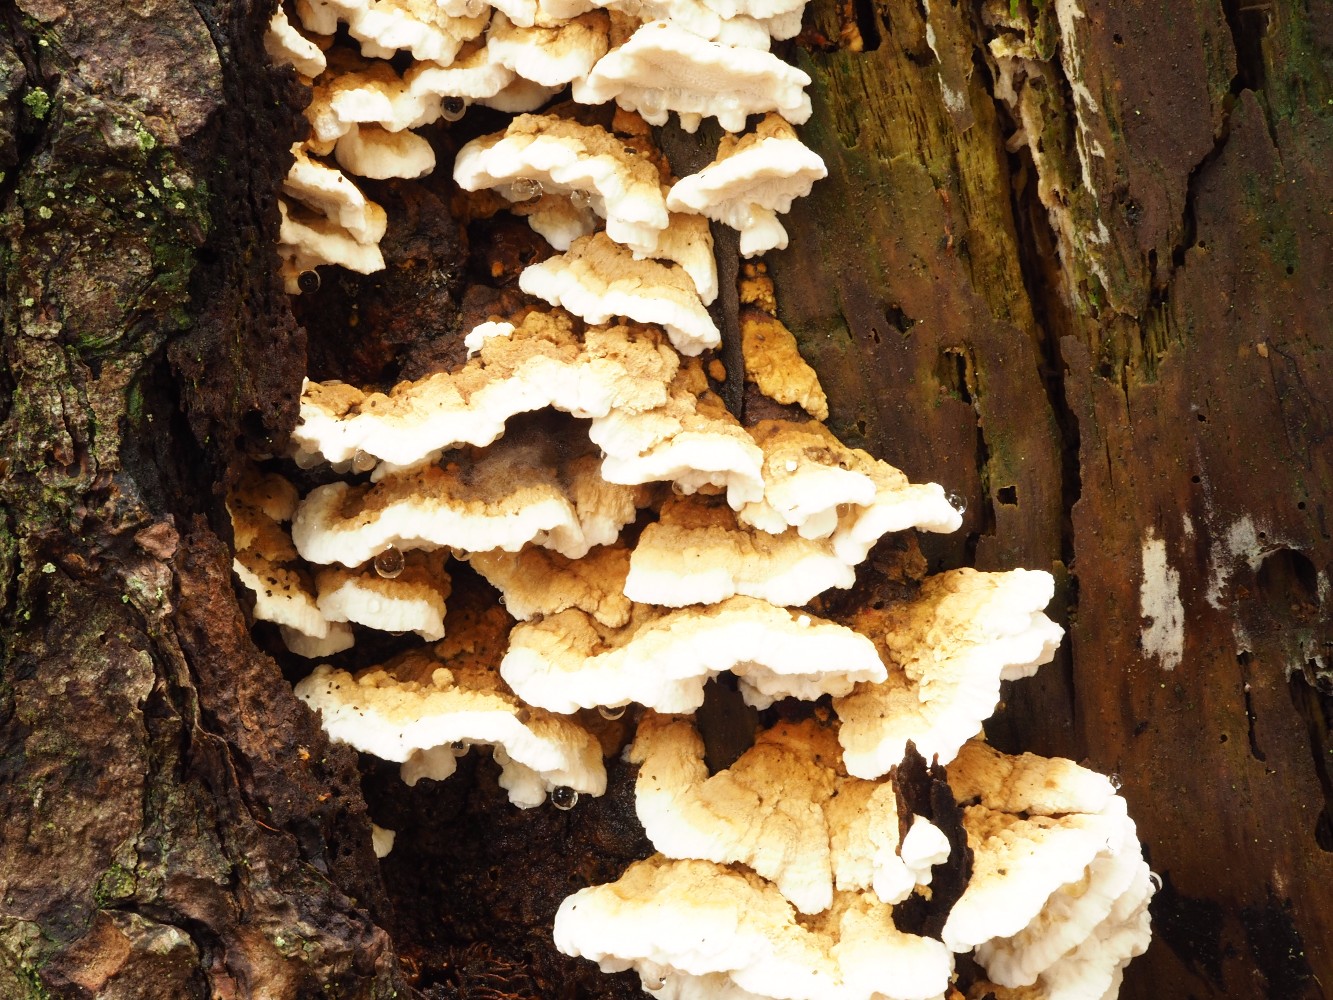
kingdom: Fungi
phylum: Basidiomycota
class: Agaricomycetes
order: Polyporales
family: Fomitopsidaceae
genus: Neoantrodia
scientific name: Neoantrodia serialis
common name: række-sejporesvamp
